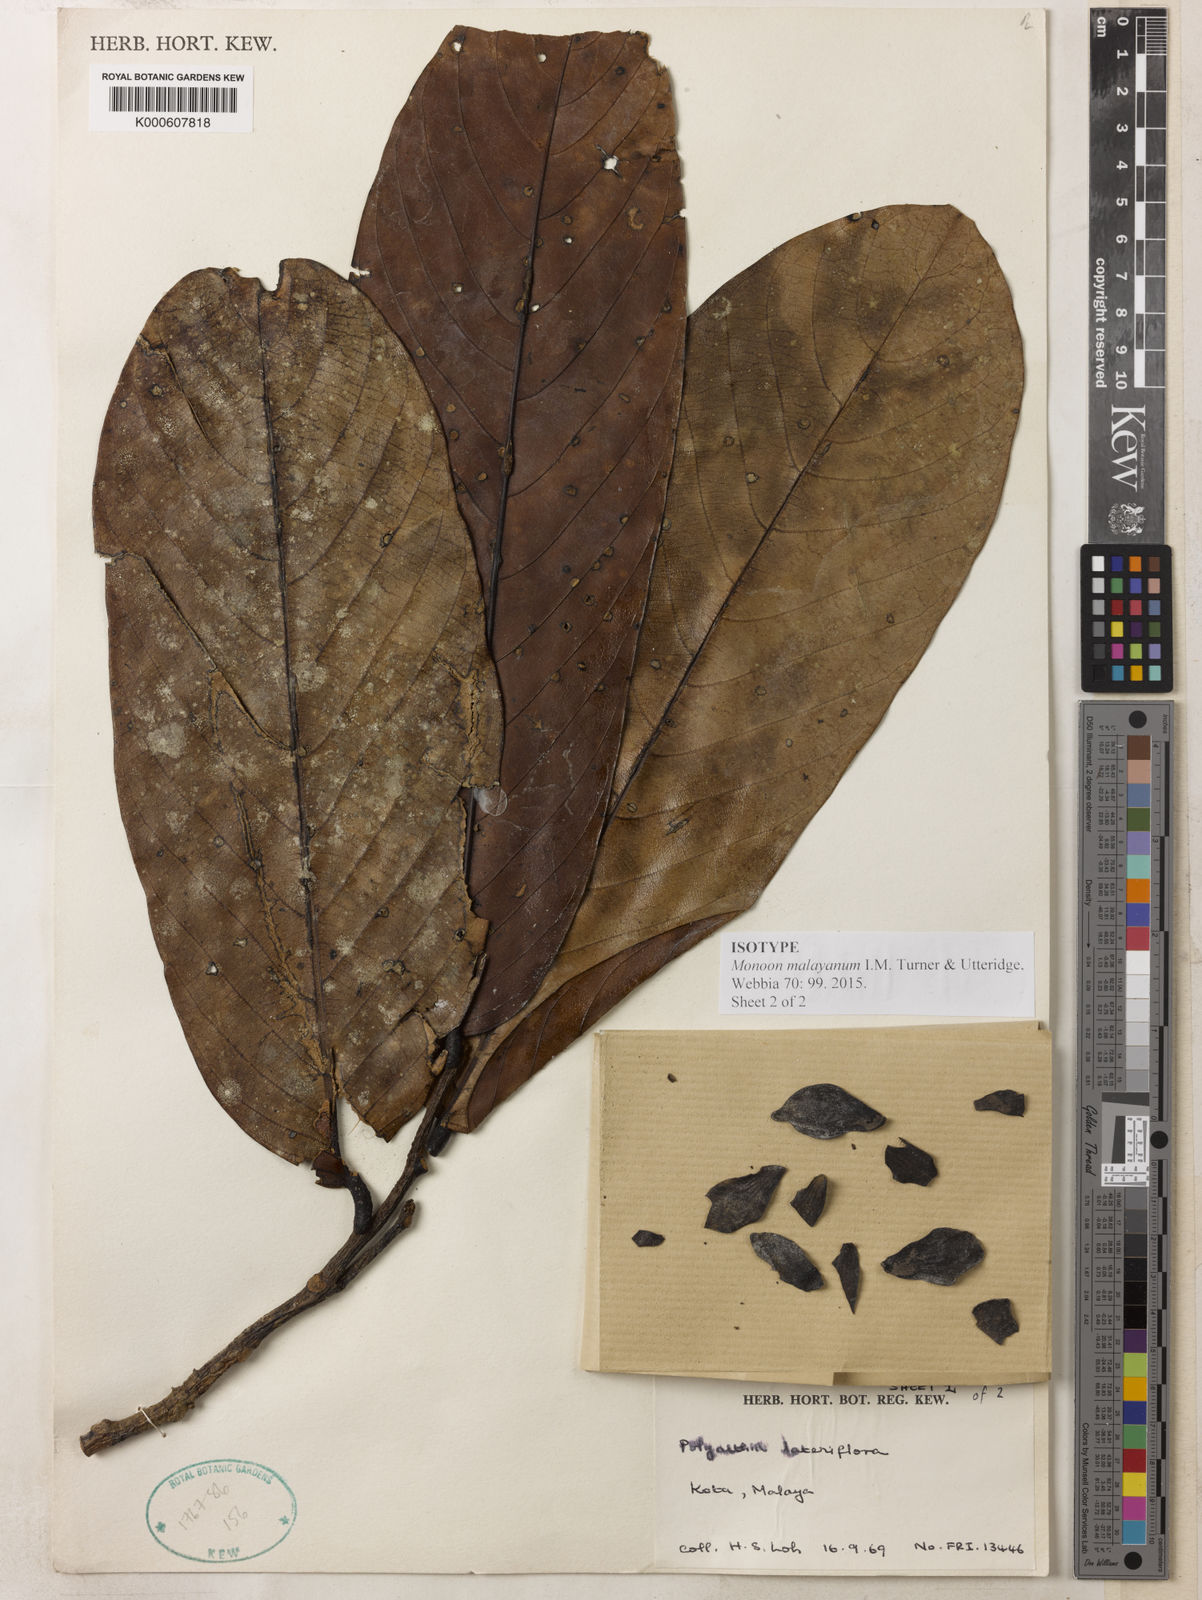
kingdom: Plantae
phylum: Tracheophyta
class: Magnoliopsida
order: Magnoliales
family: Annonaceae
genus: Monoon
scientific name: Monoon malayanum
